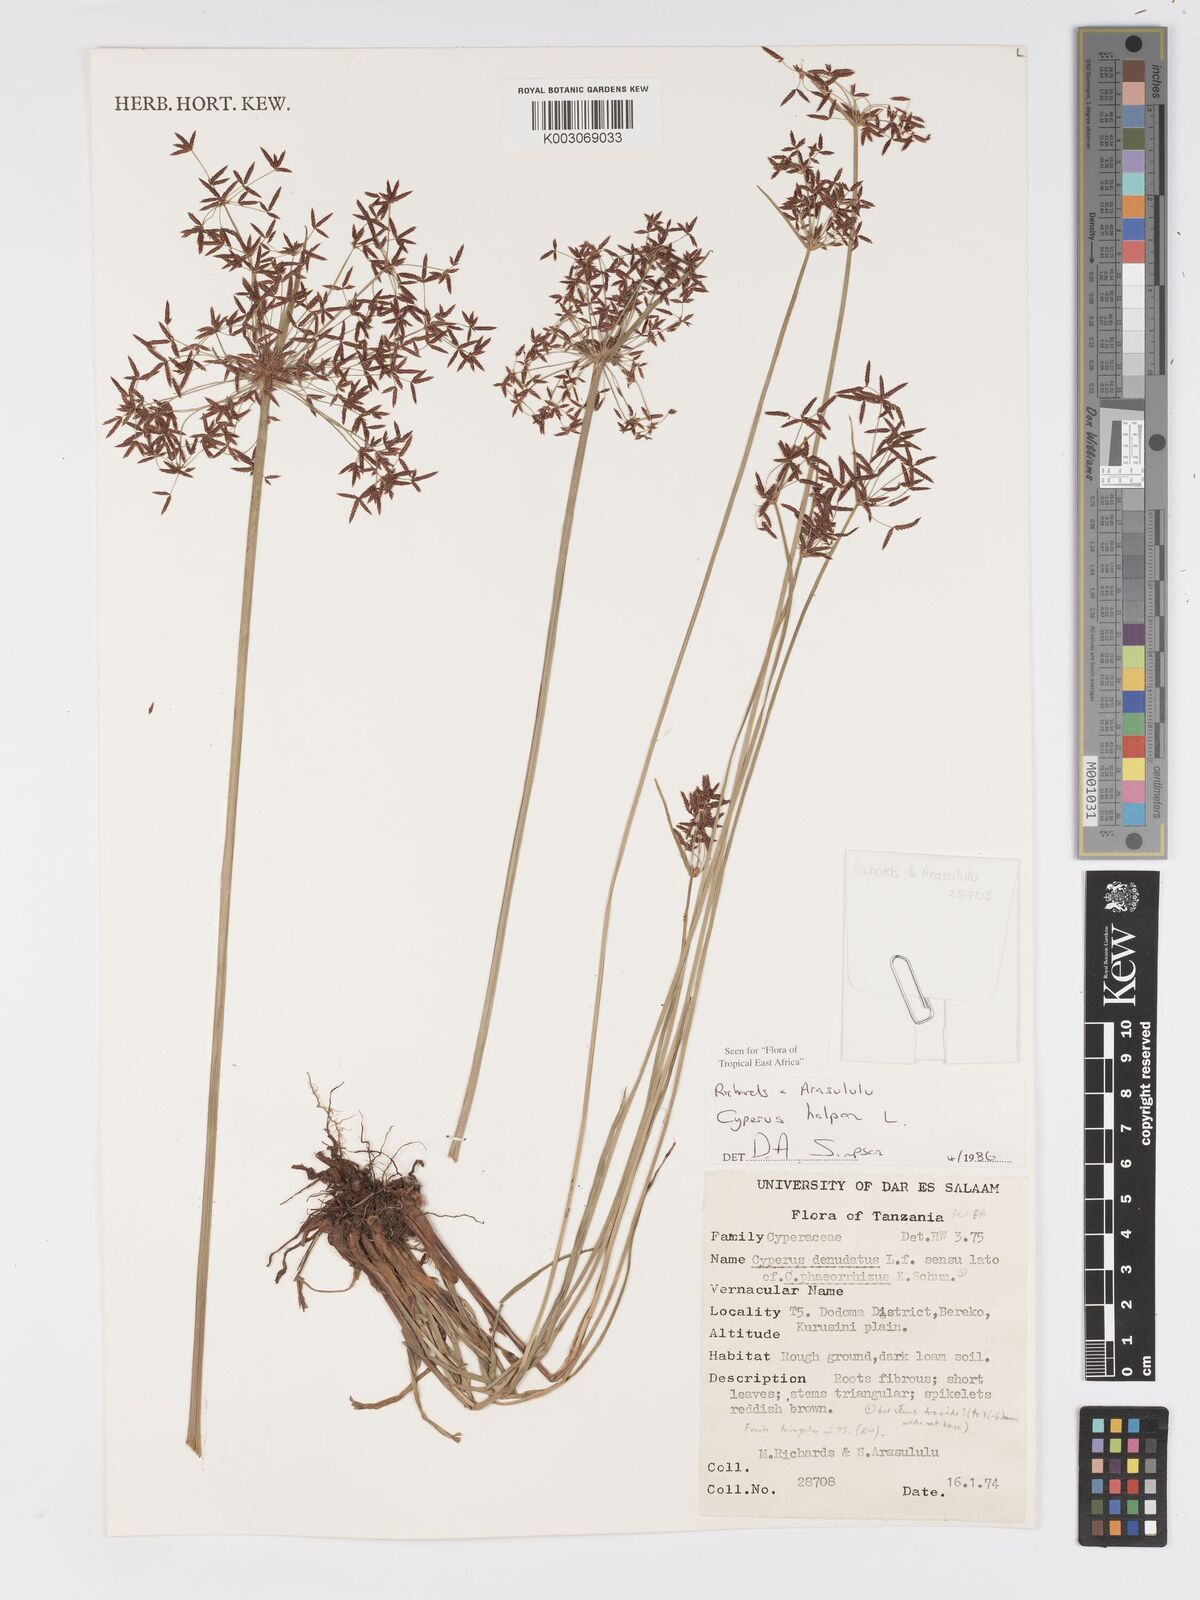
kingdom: Plantae
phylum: Tracheophyta
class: Liliopsida
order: Poales
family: Cyperaceae
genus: Cyperus
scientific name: Cyperus haspan
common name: Haspan flatsedge
